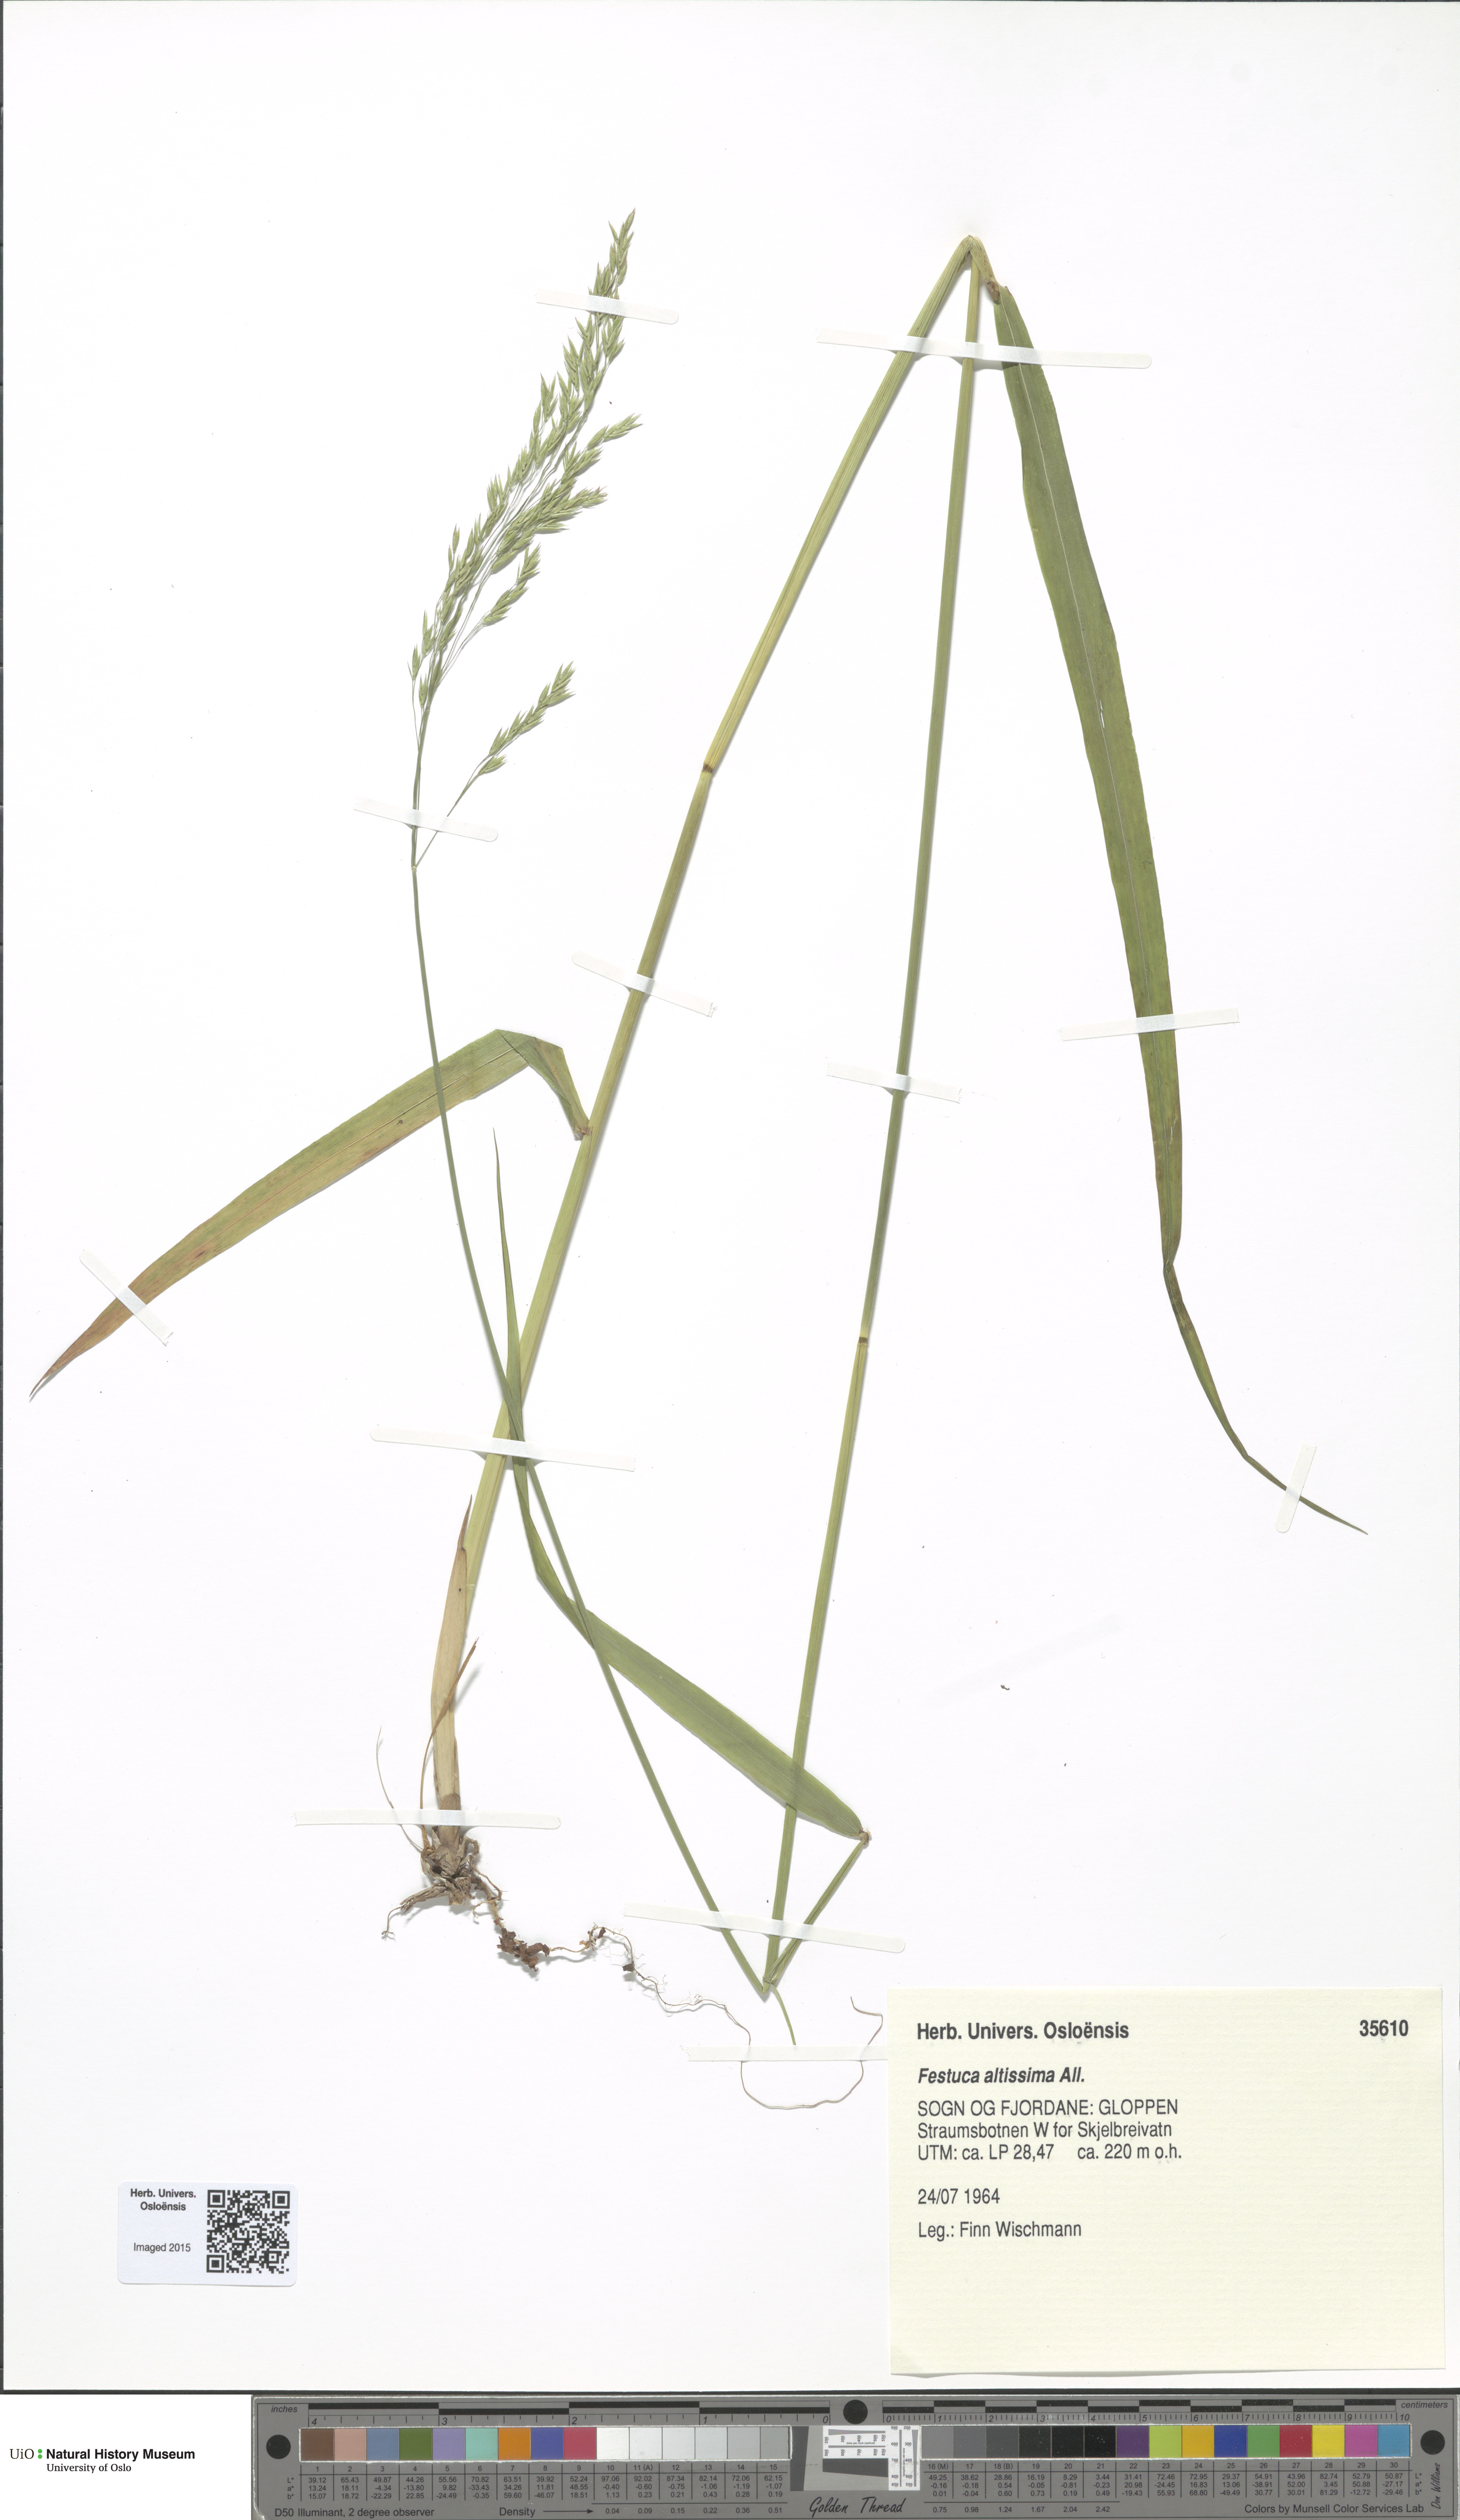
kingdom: Plantae
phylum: Tracheophyta
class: Liliopsida
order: Poales
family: Poaceae
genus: Festuca
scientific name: Festuca altissima
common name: Wood fescue
